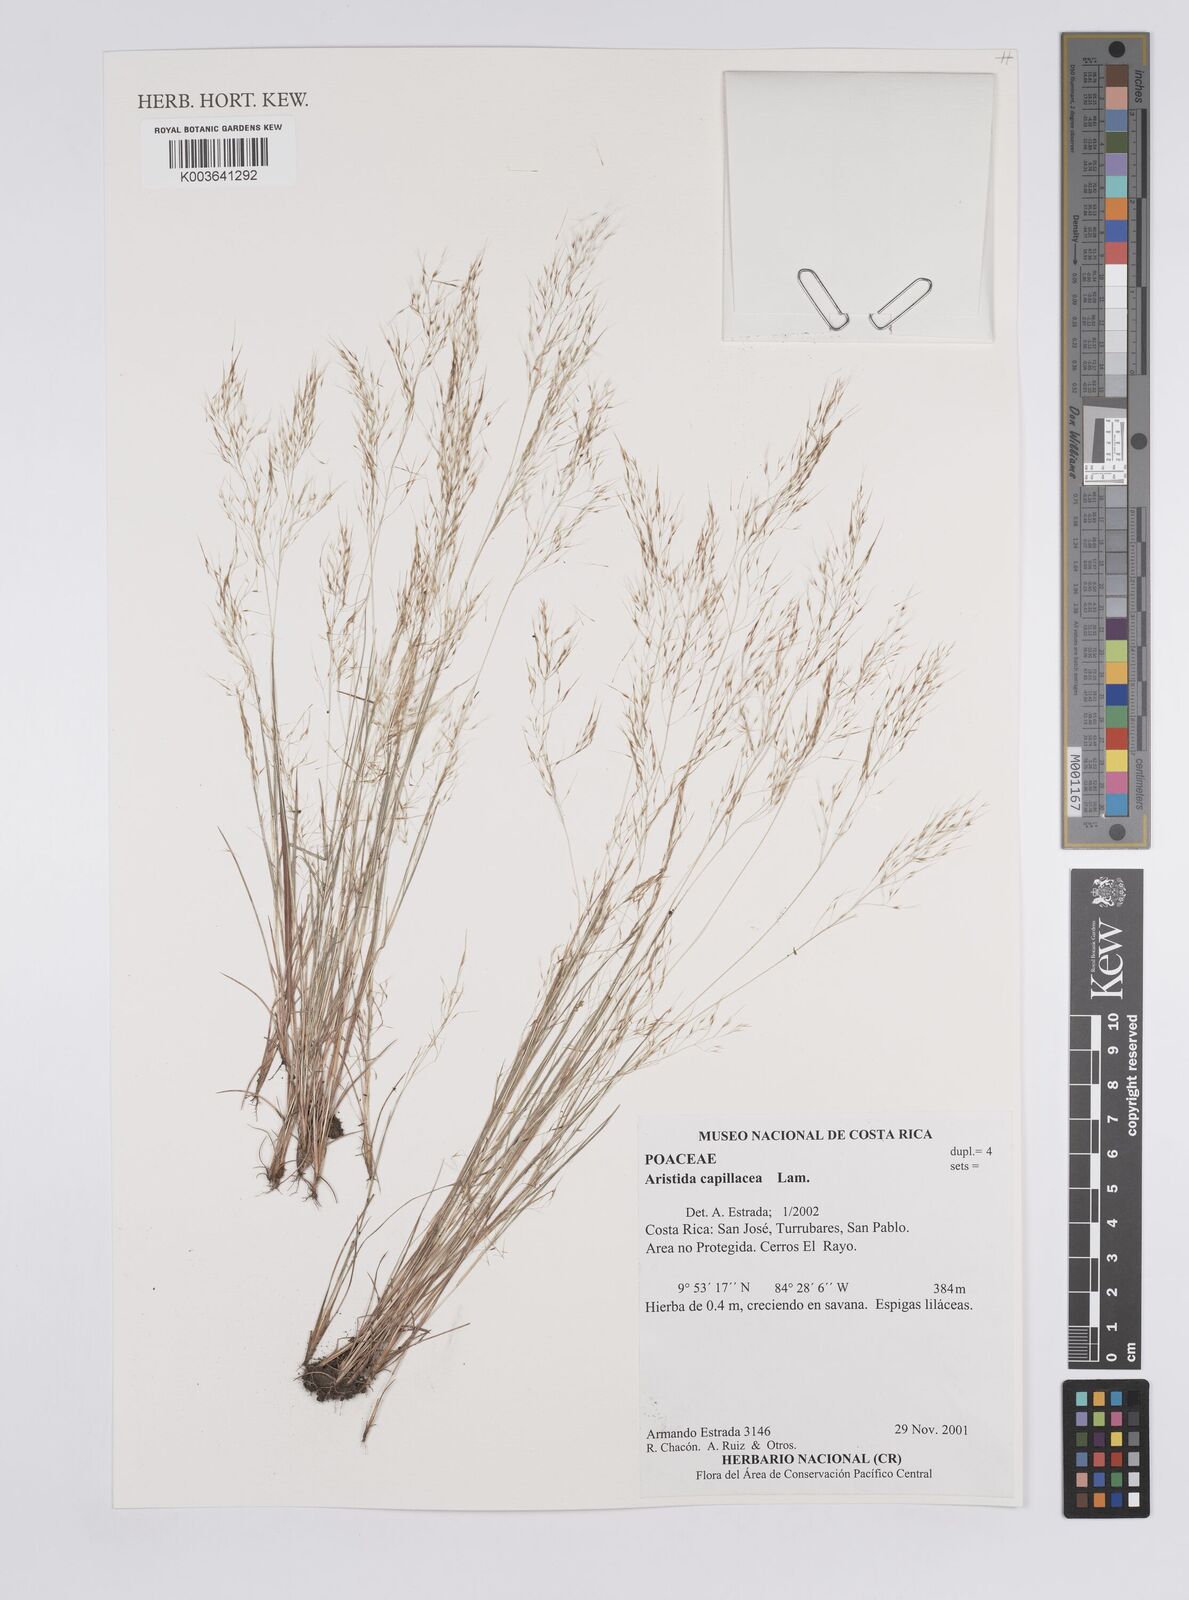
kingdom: Plantae
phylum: Tracheophyta
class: Liliopsida
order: Poales
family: Poaceae
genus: Aristida
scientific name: Aristida
